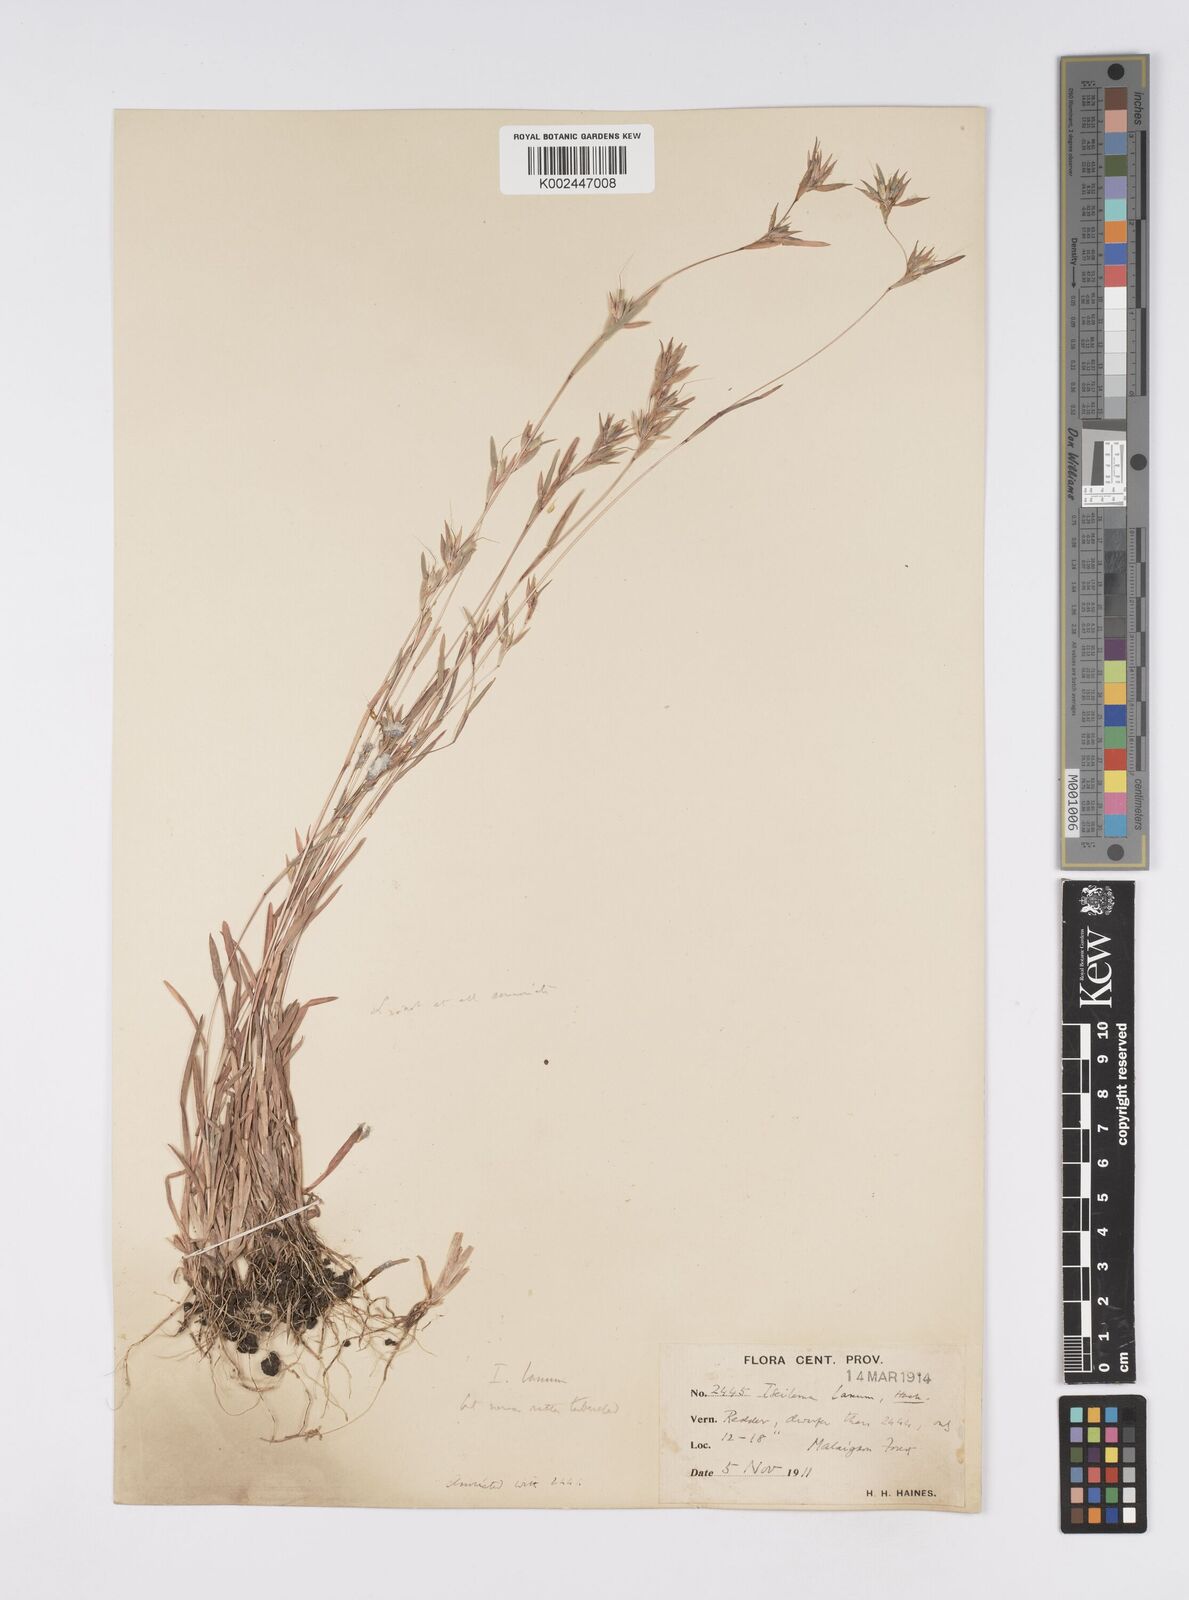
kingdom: Plantae
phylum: Tracheophyta
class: Liliopsida
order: Poales
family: Poaceae
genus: Iseilema
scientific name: Iseilema prostratum
